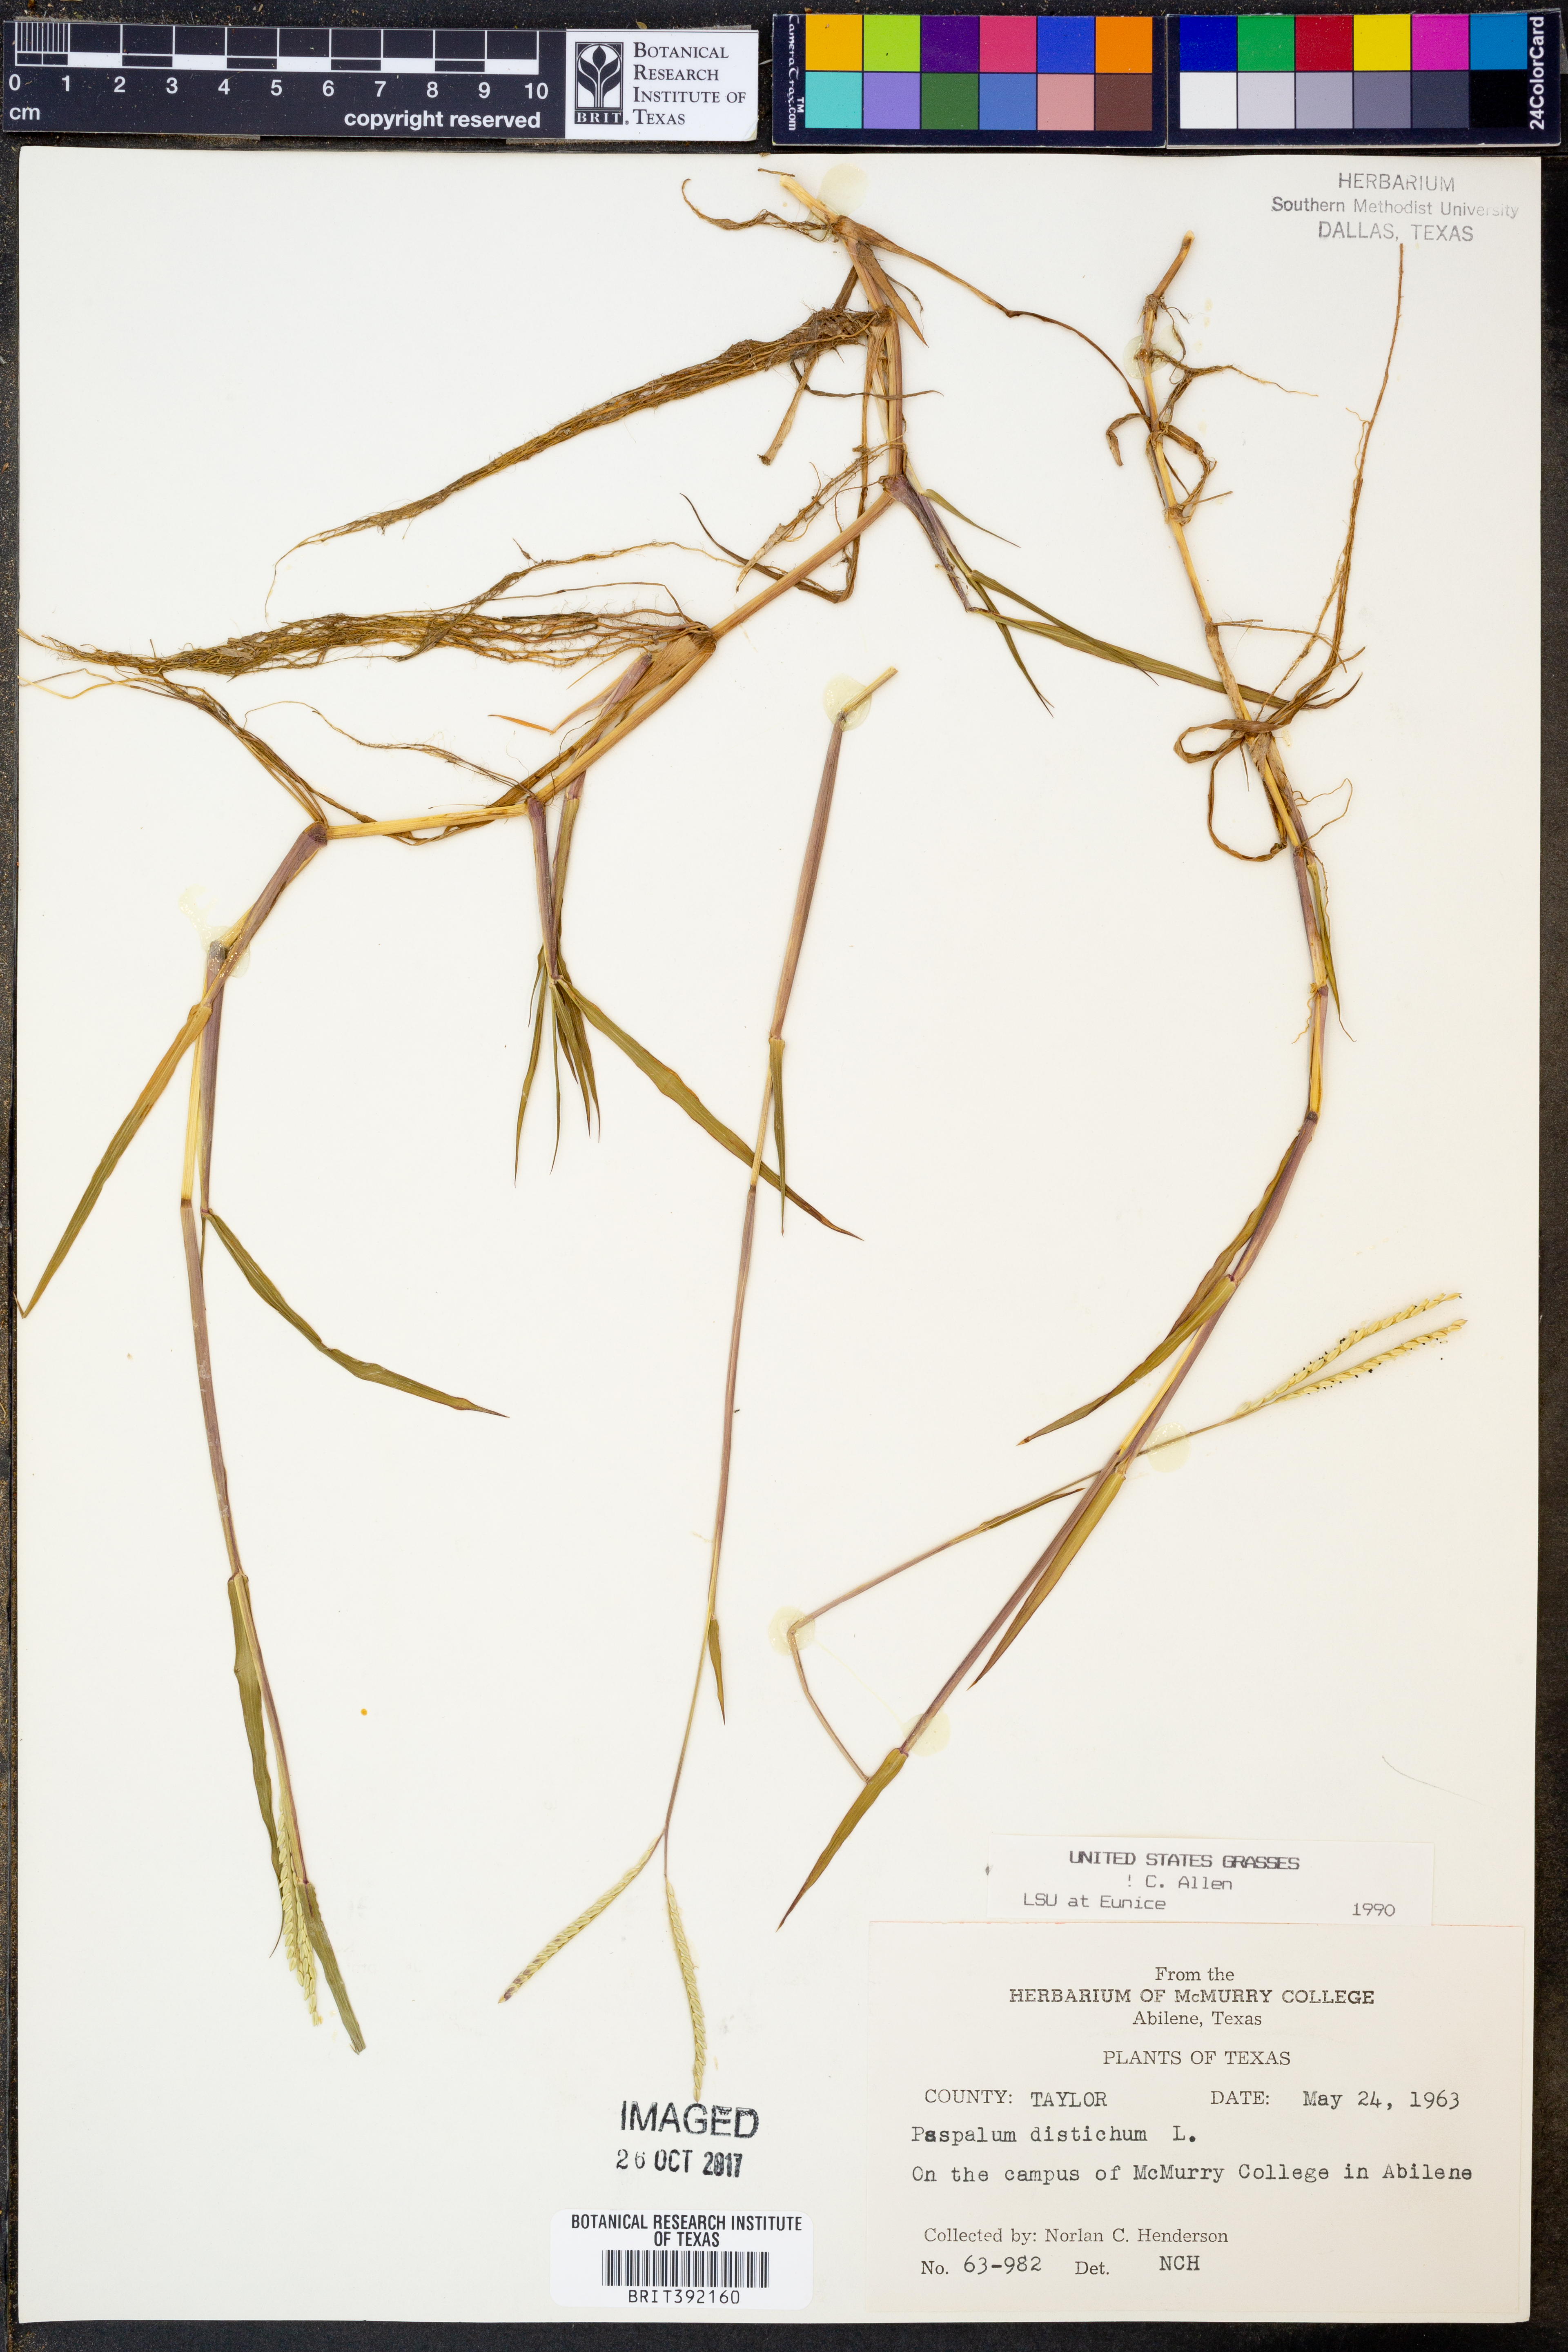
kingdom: Plantae
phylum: Tracheophyta
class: Liliopsida
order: Poales
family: Poaceae
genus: Paspalum
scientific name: Paspalum distichum
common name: Knotgrass
